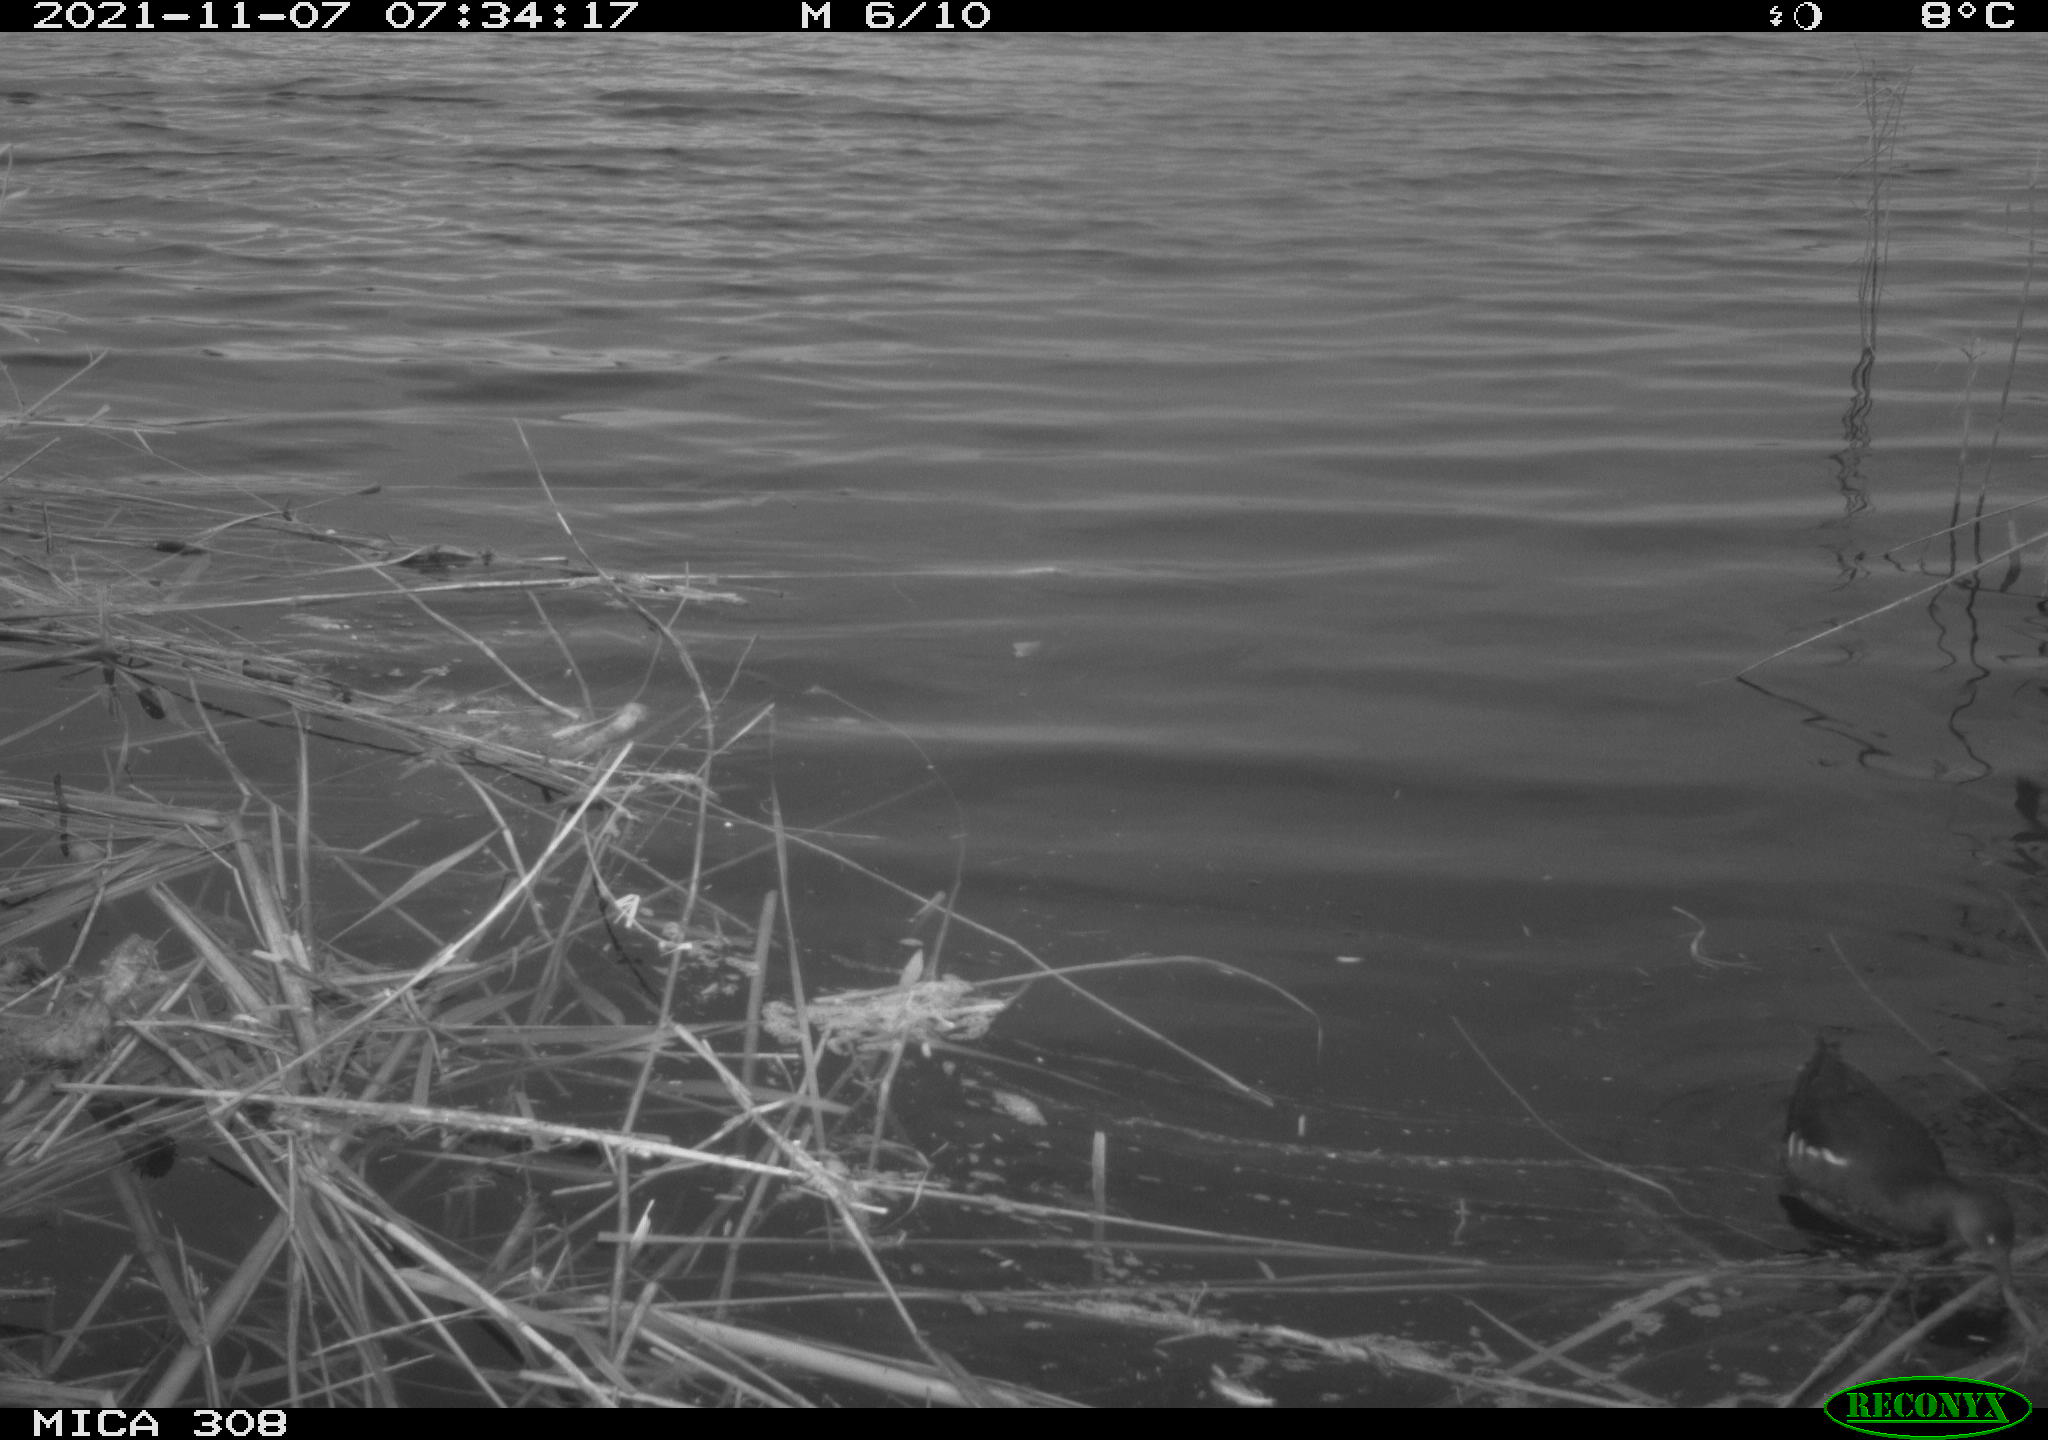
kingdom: Animalia
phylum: Chordata
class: Aves
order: Gruiformes
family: Rallidae
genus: Gallinula
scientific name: Gallinula chloropus
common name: Common moorhen
